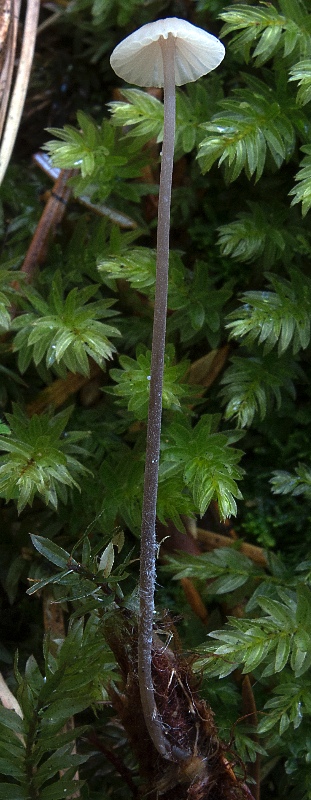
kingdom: Fungi
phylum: Basidiomycota
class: Agaricomycetes
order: Agaricales
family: Mycenaceae
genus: Mycena
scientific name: Mycena galopus
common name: hvidmælket huesvamp
